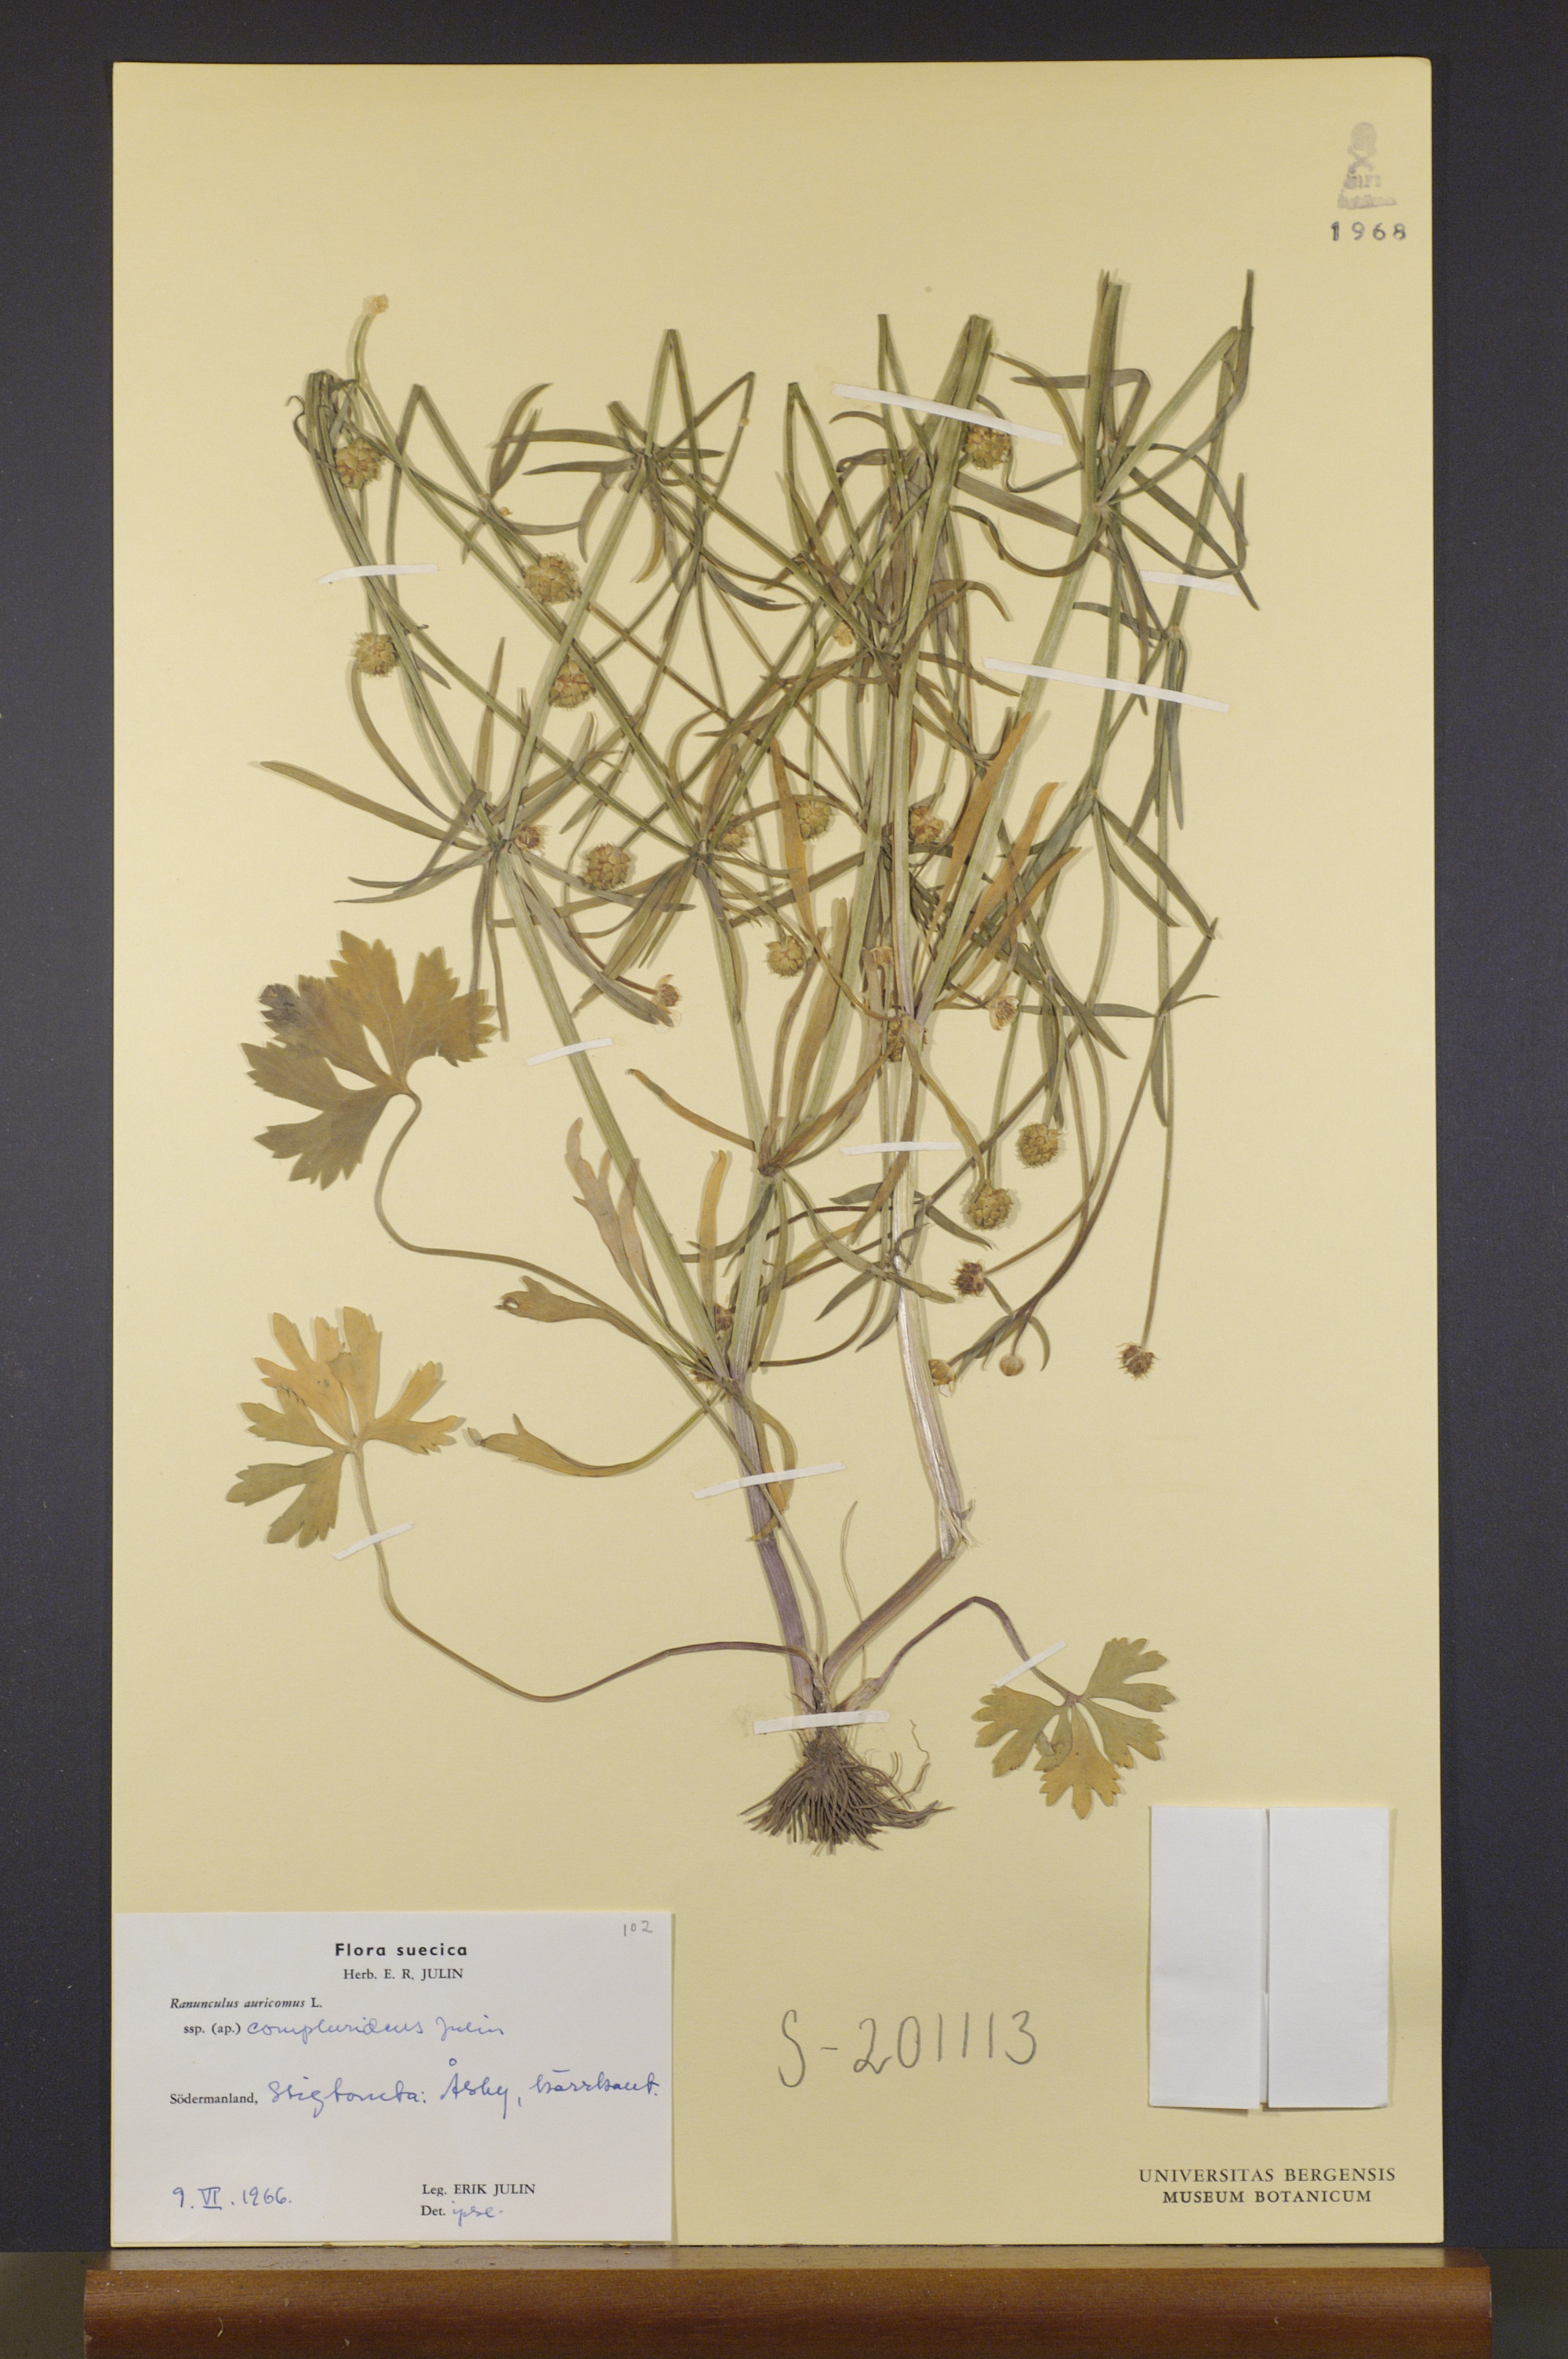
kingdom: Plantae
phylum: Tracheophyta
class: Magnoliopsida
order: Ranunculales
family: Ranunculaceae
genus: Ranunculus
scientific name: Ranunculus compluridens
